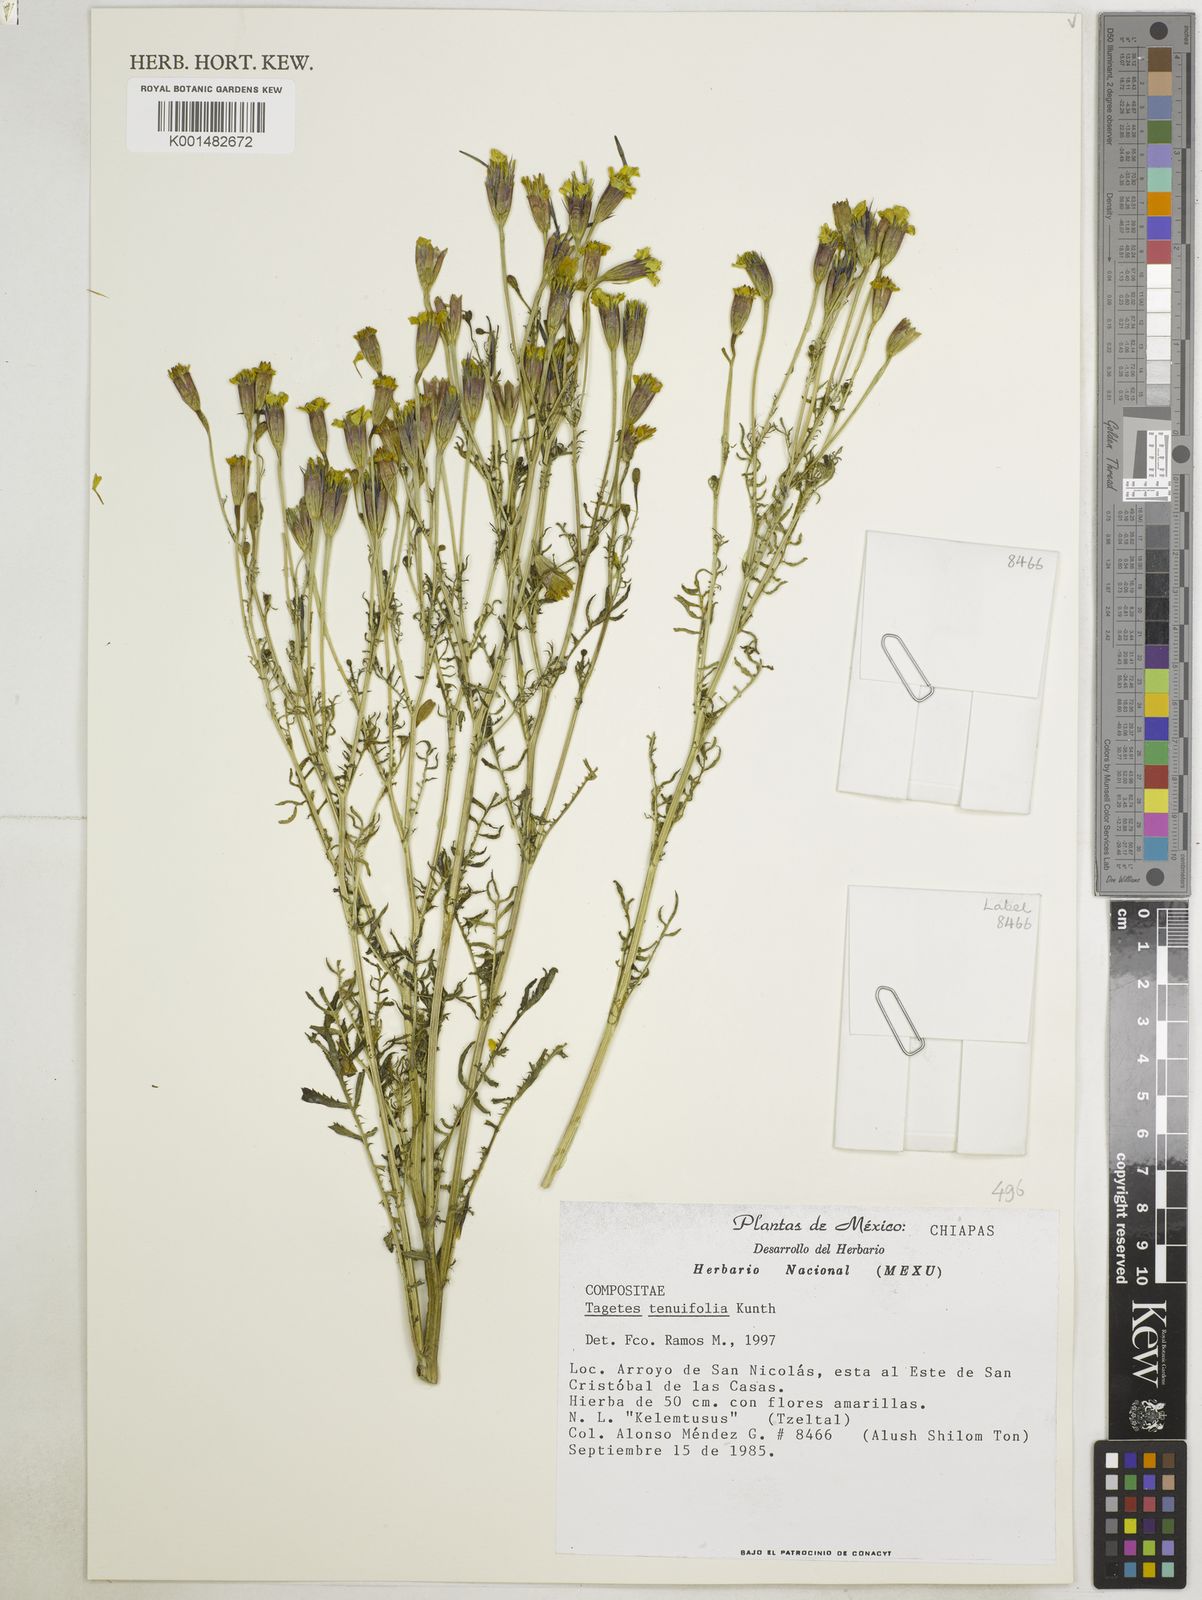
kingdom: Plantae
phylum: Tracheophyta
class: Magnoliopsida
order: Asterales
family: Asteraceae
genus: Tagetes
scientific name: Tagetes tenuiflora
